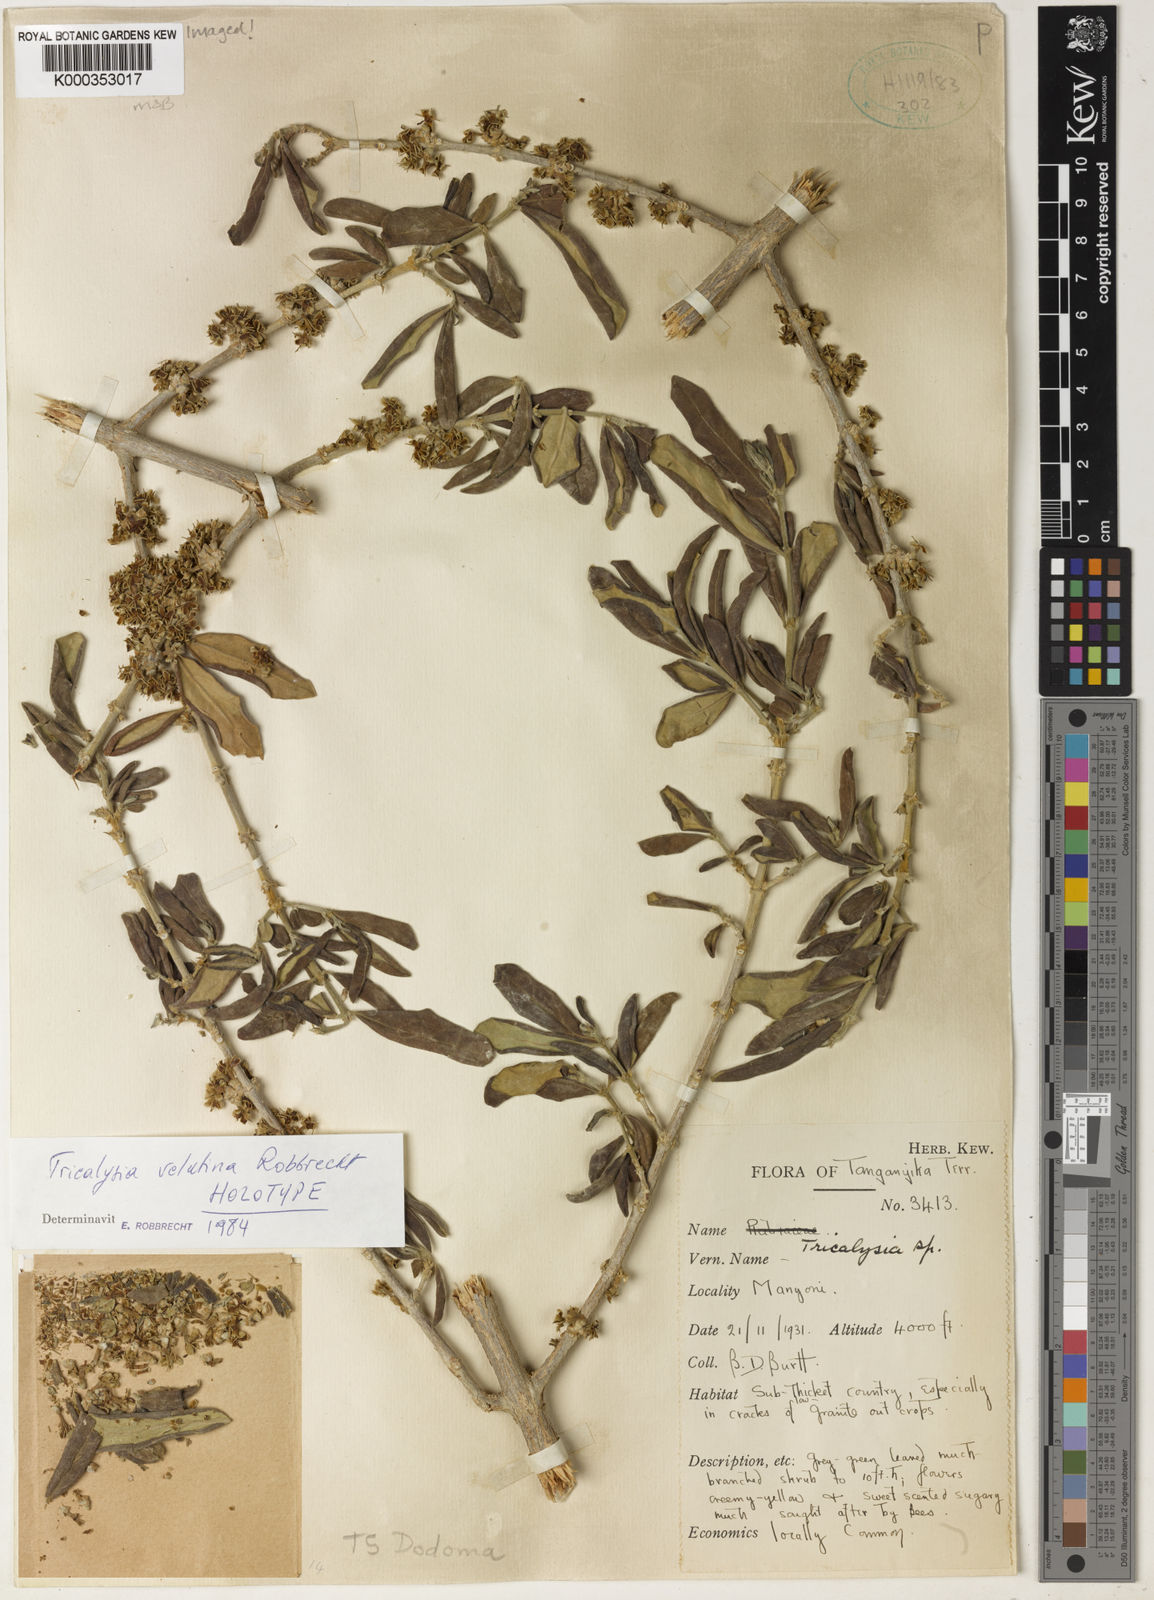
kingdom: Plantae
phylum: Tracheophyta
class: Magnoliopsida
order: Gentianales
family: Rubiaceae
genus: Tricalysia
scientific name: Tricalysia velutina
